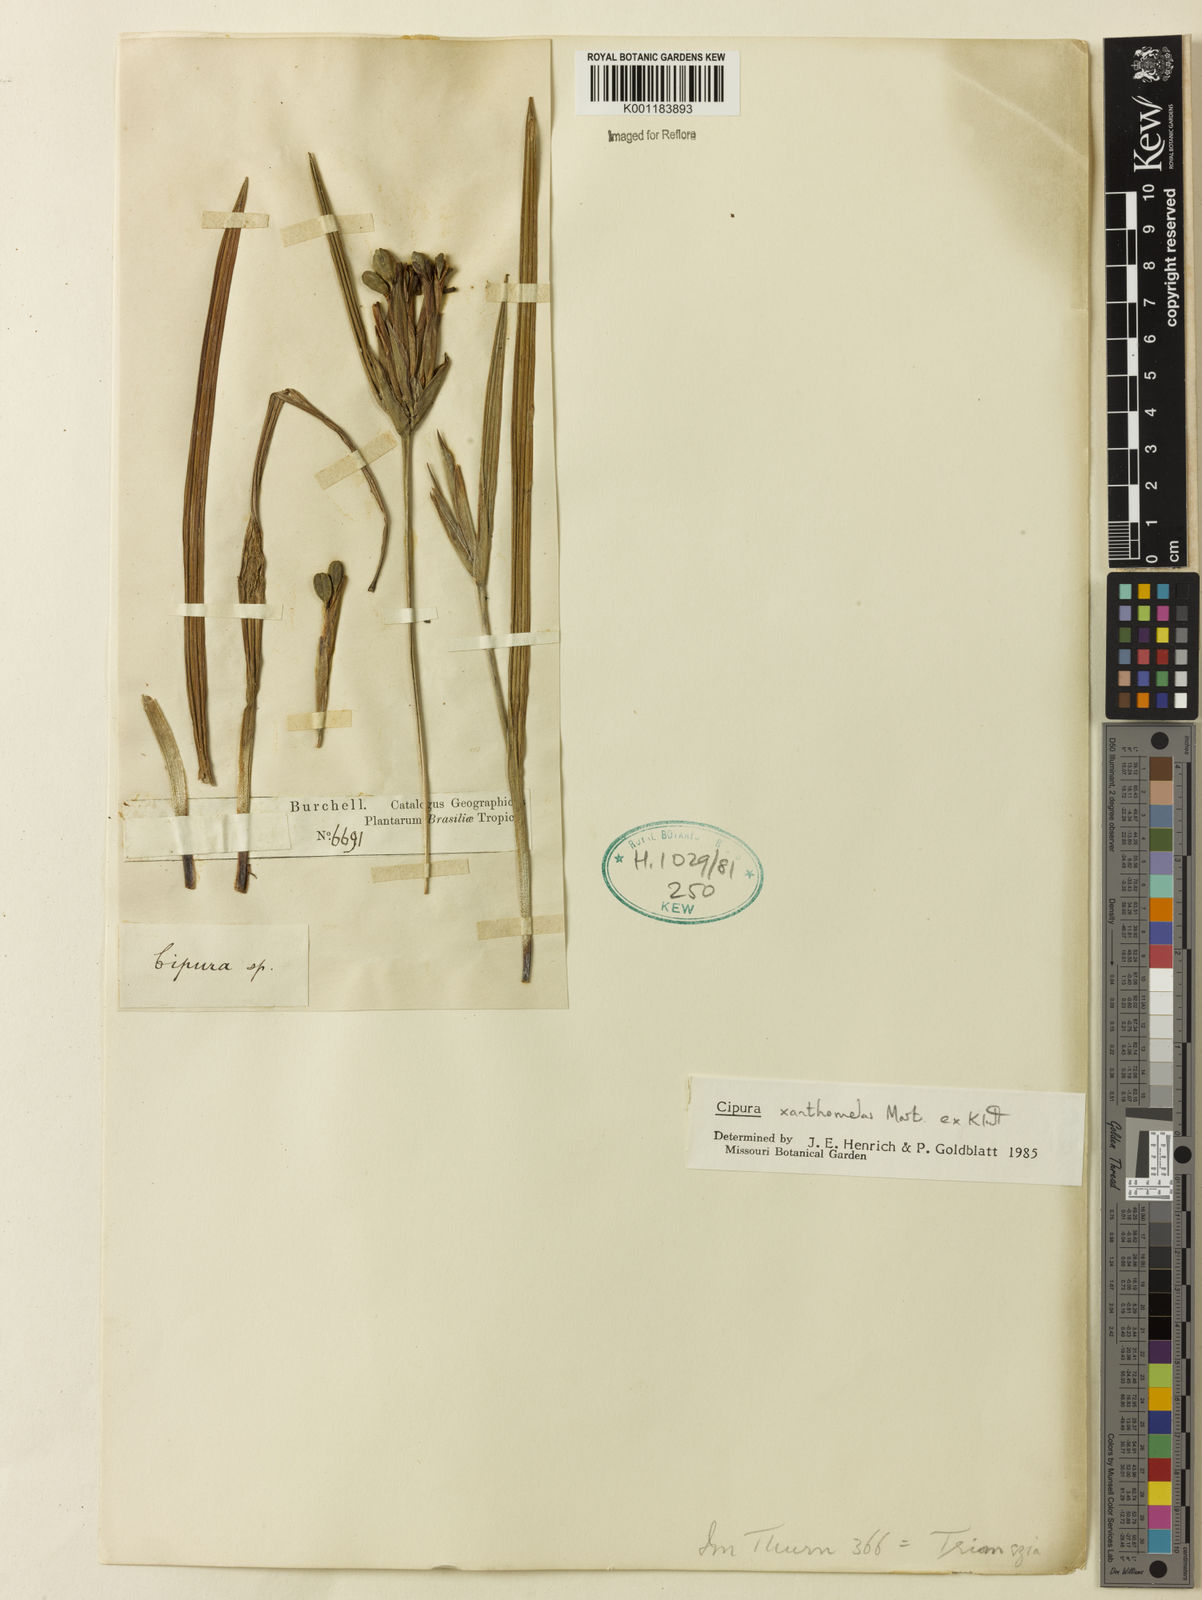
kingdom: Plantae
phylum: Tracheophyta
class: Liliopsida
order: Asparagales
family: Iridaceae
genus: Cipura
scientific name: Cipura xanthomelas
